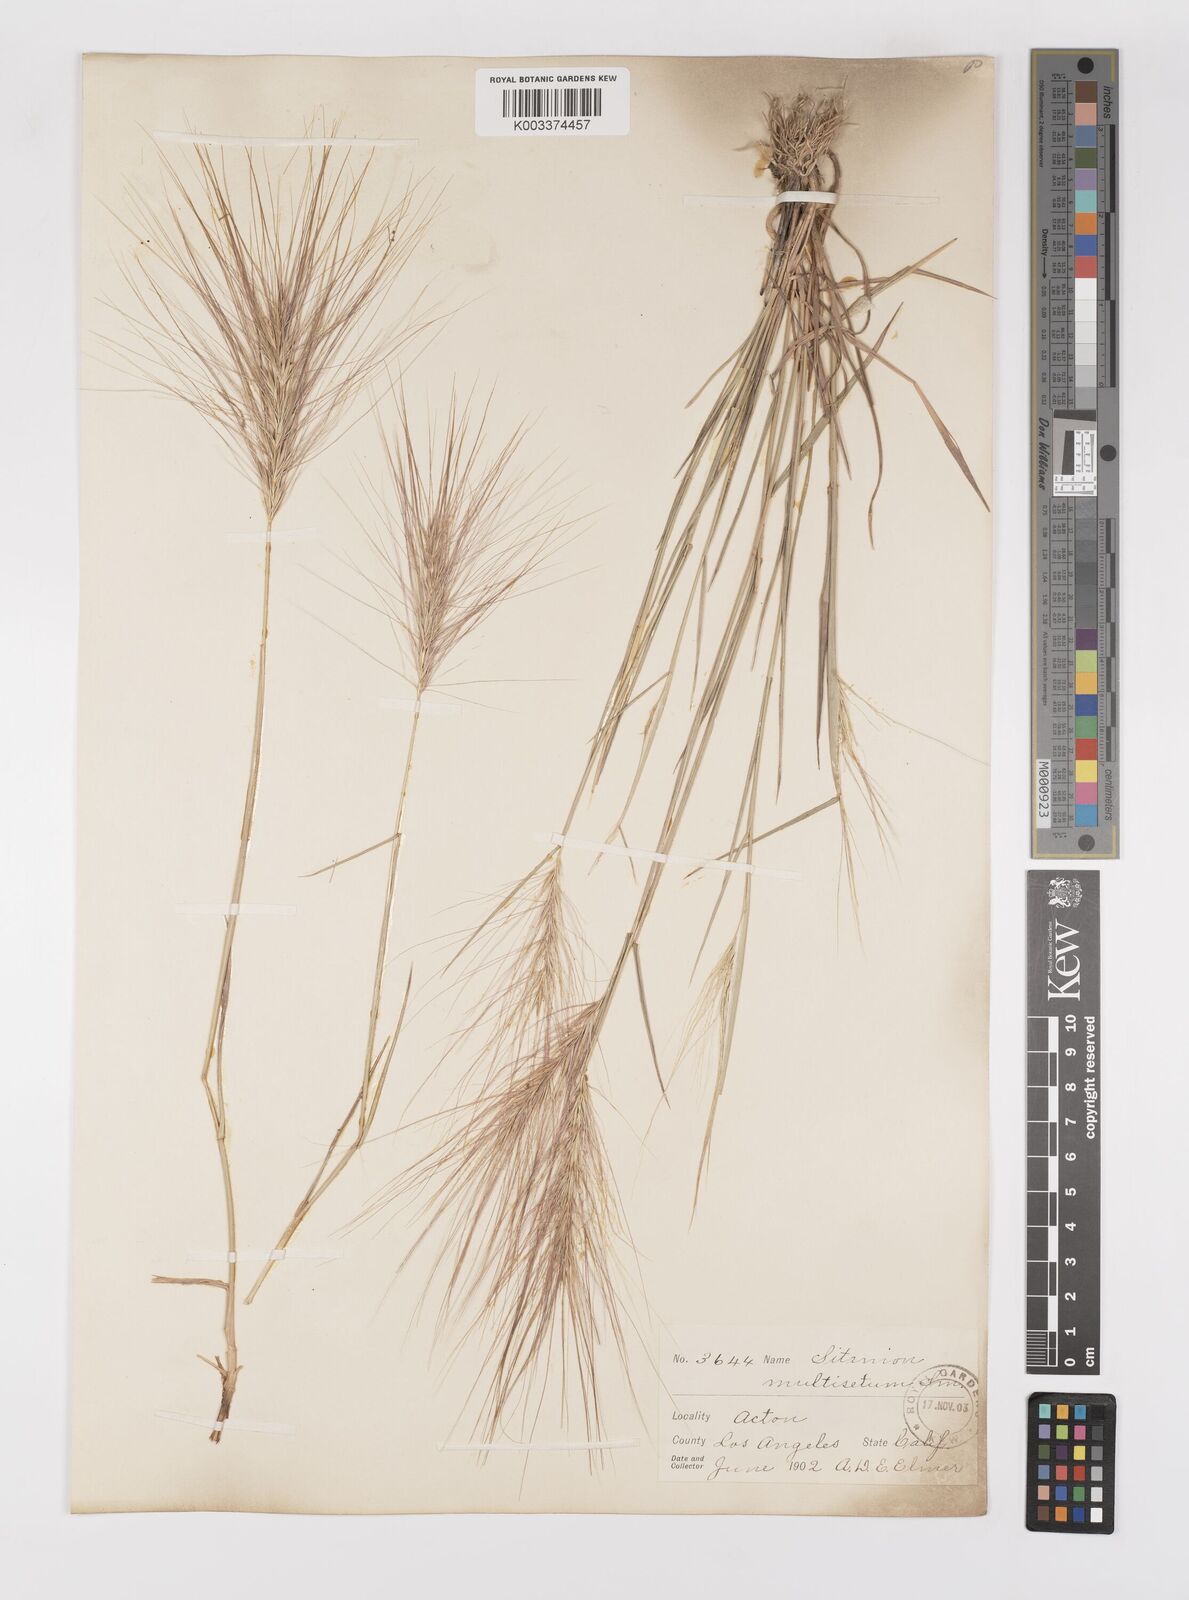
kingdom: Plantae
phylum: Tracheophyta
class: Liliopsida
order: Poales
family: Poaceae
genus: Elymus
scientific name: Elymus multisetus
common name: Big squirreltail
